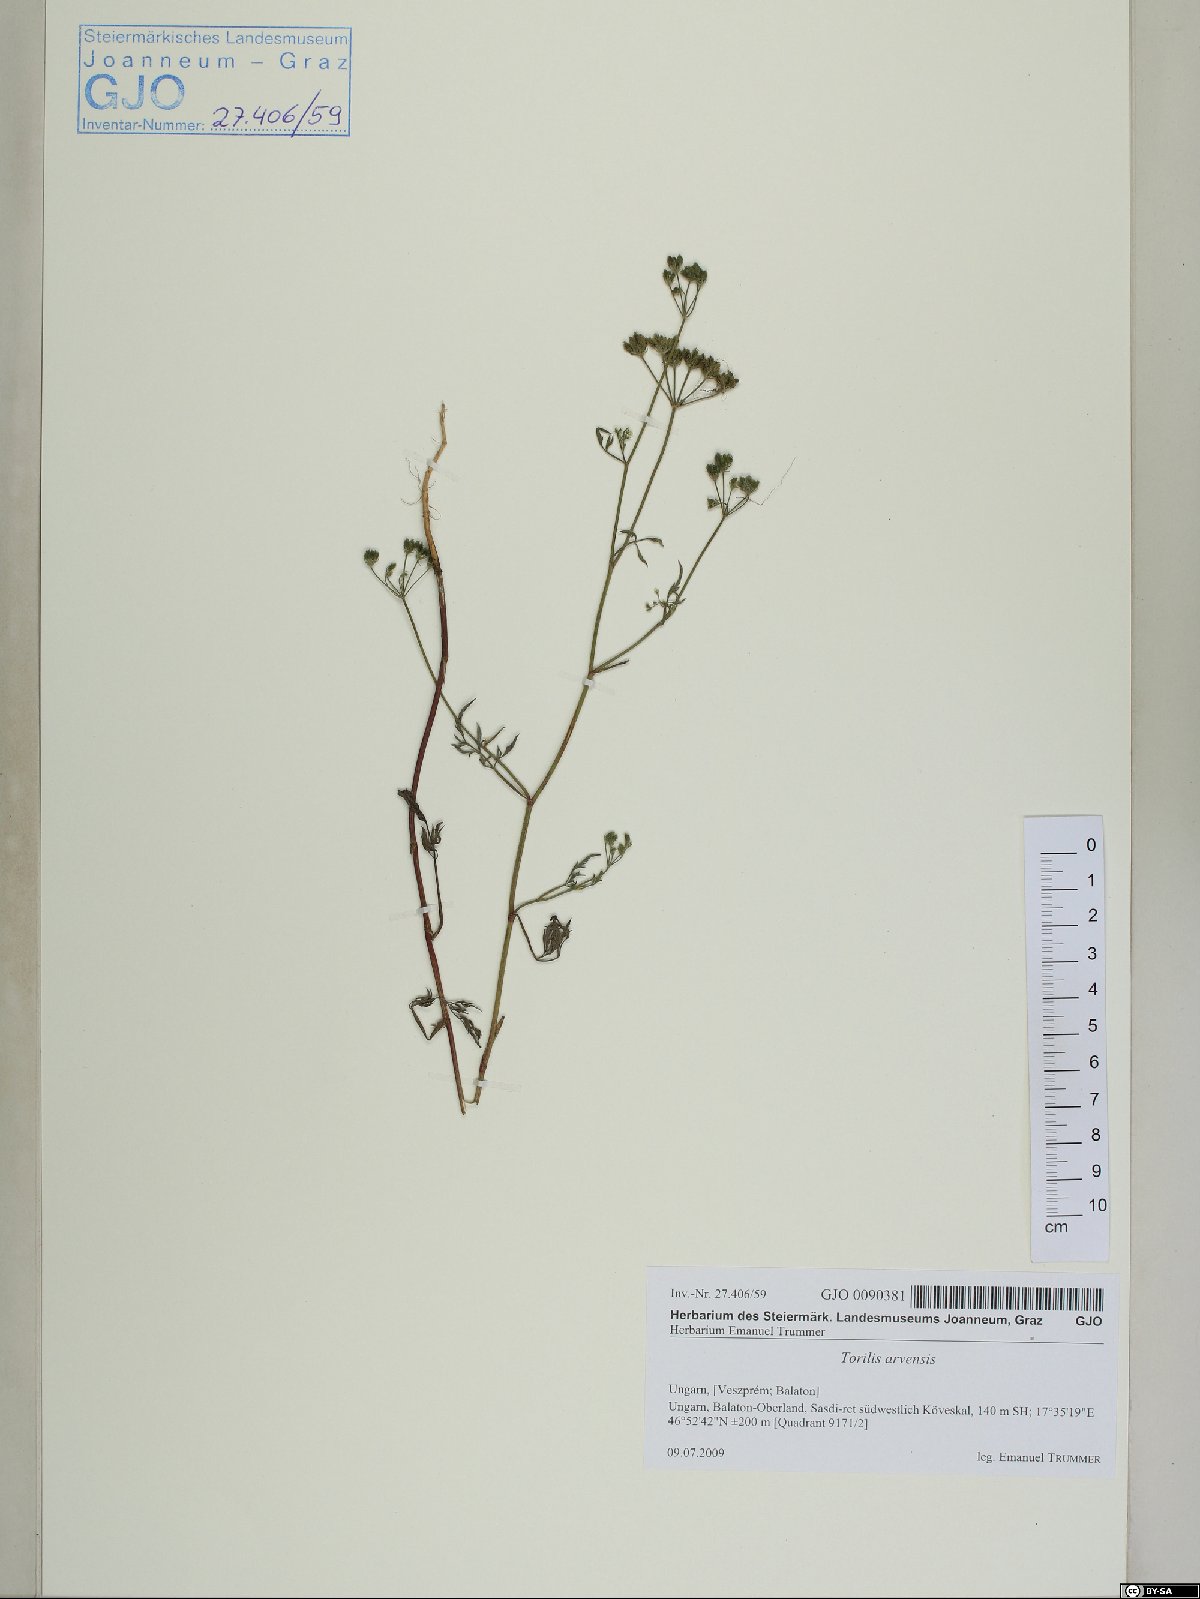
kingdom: Plantae
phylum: Tracheophyta
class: Magnoliopsida
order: Apiales
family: Apiaceae
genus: Torilis
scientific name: Torilis arvensis
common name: Spreading hedge-parsley
